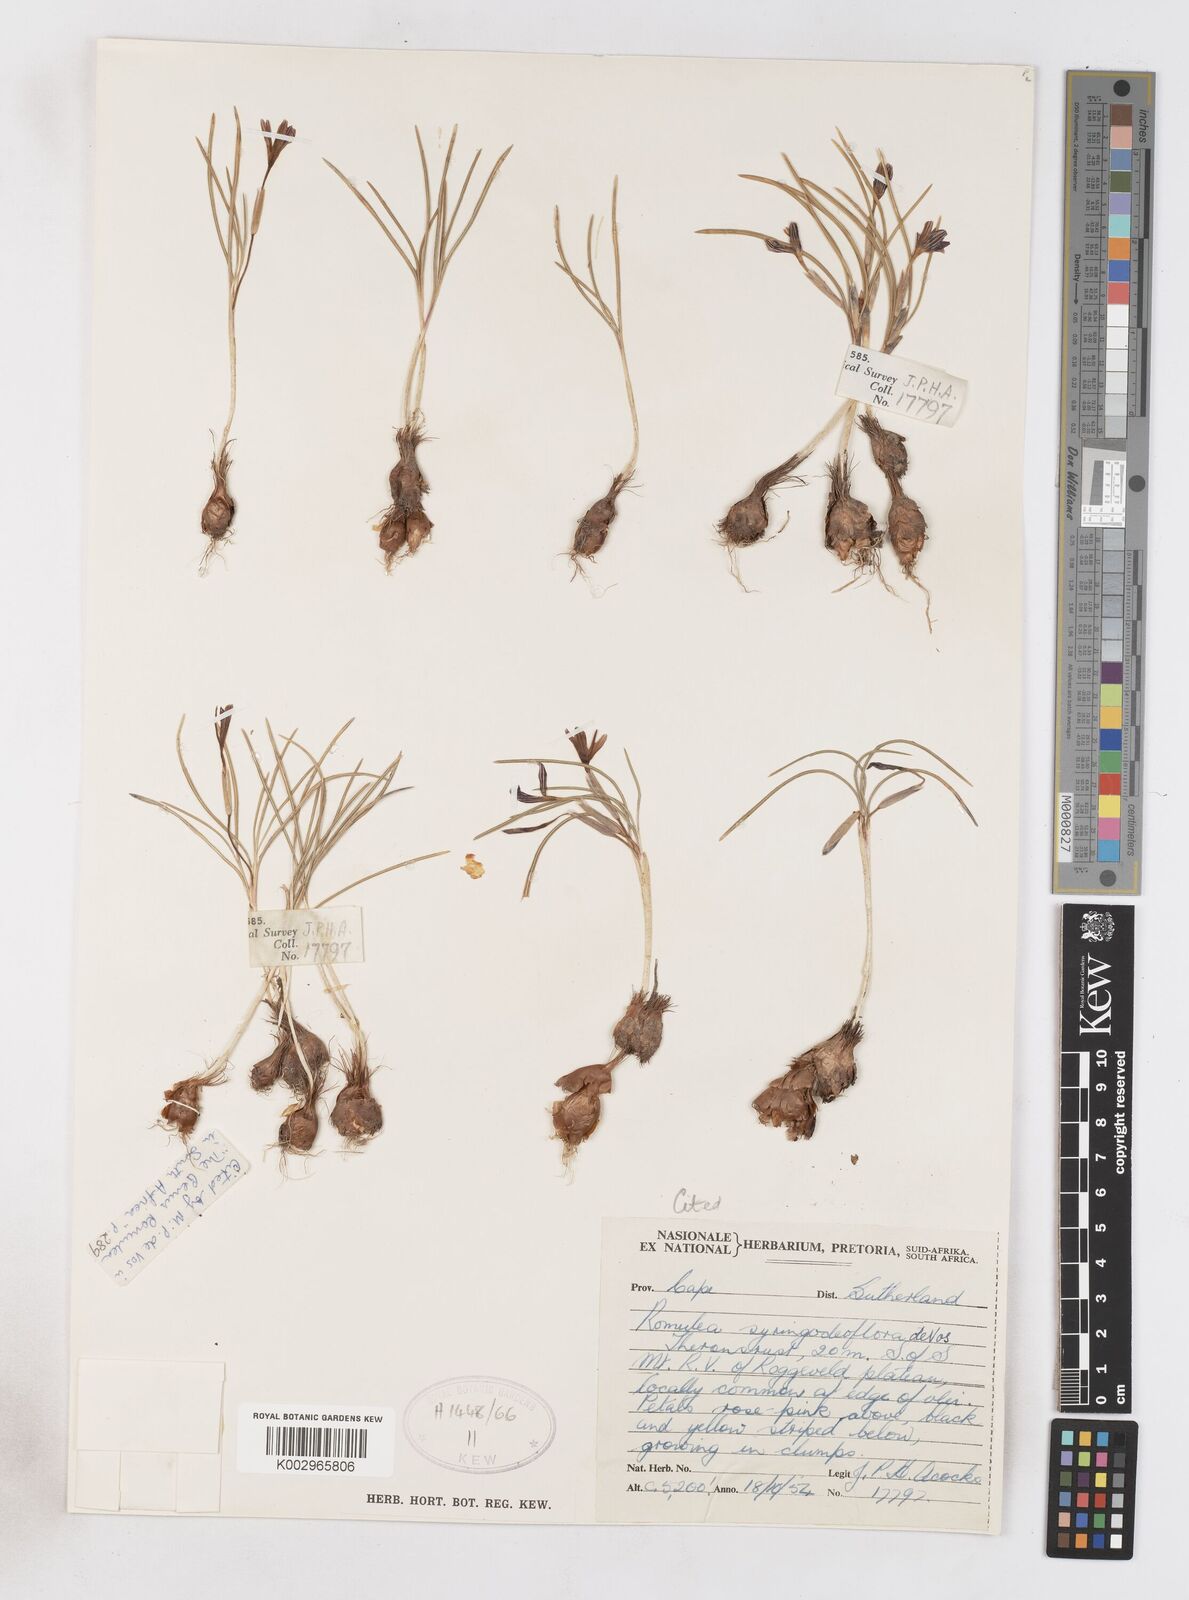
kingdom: Plantae
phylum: Tracheophyta
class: Liliopsida
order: Asparagales
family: Iridaceae
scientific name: Iridaceae
